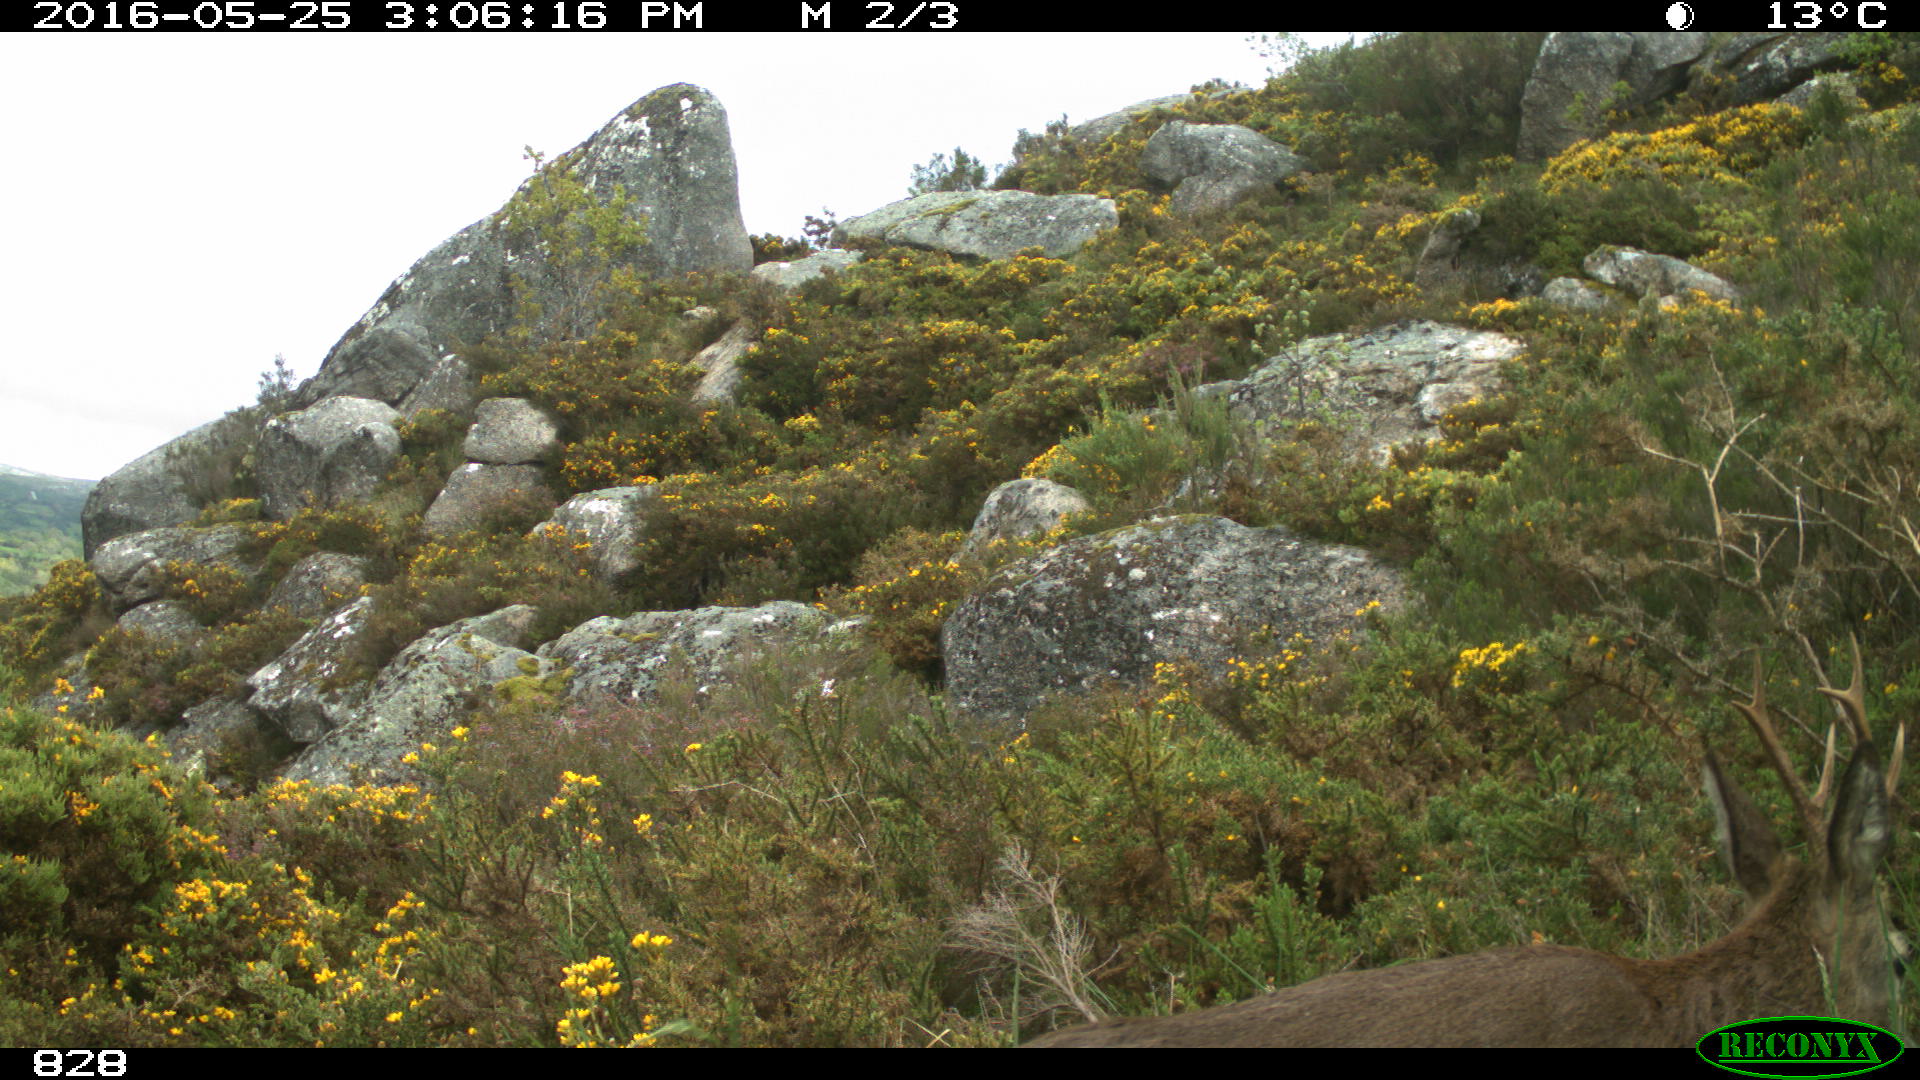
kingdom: Animalia
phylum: Chordata
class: Mammalia
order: Artiodactyla
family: Cervidae
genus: Capreolus
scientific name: Capreolus capreolus
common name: Western roe deer
